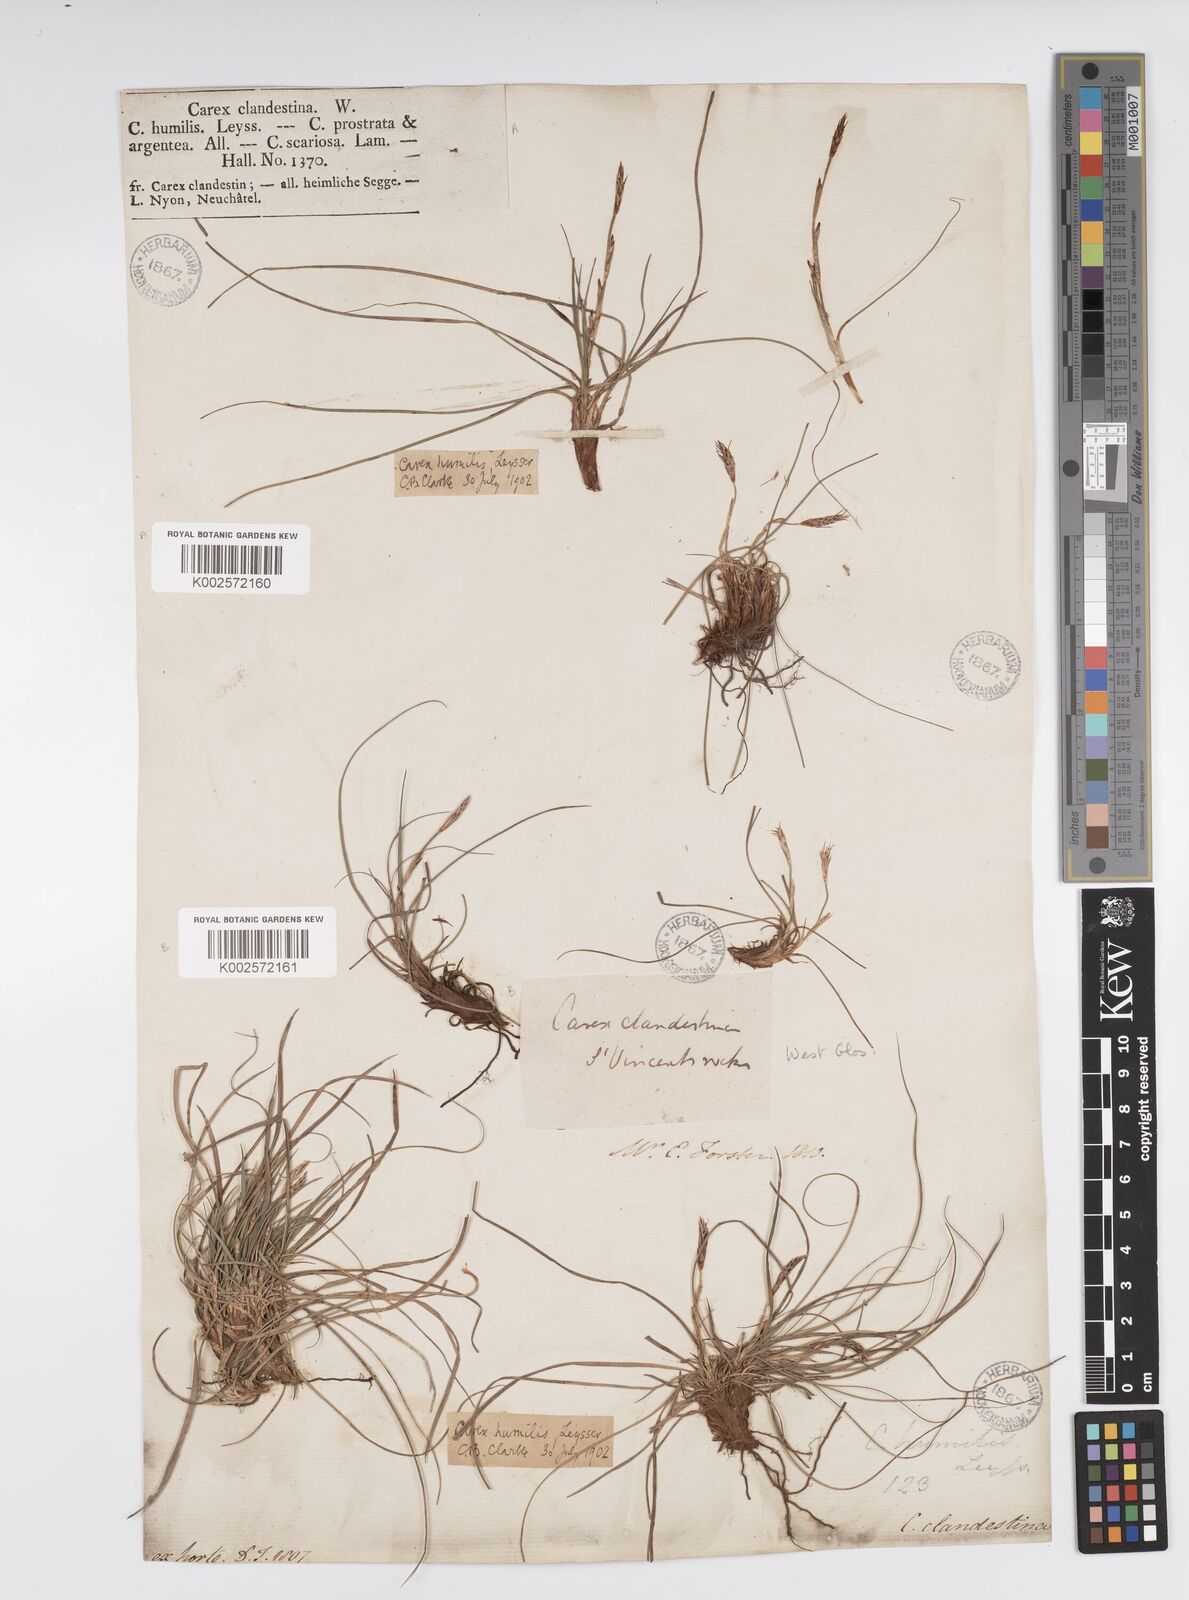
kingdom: Plantae
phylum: Tracheophyta
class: Liliopsida
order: Poales
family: Cyperaceae
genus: Carex
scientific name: Carex humilis
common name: Dwarf sedge
